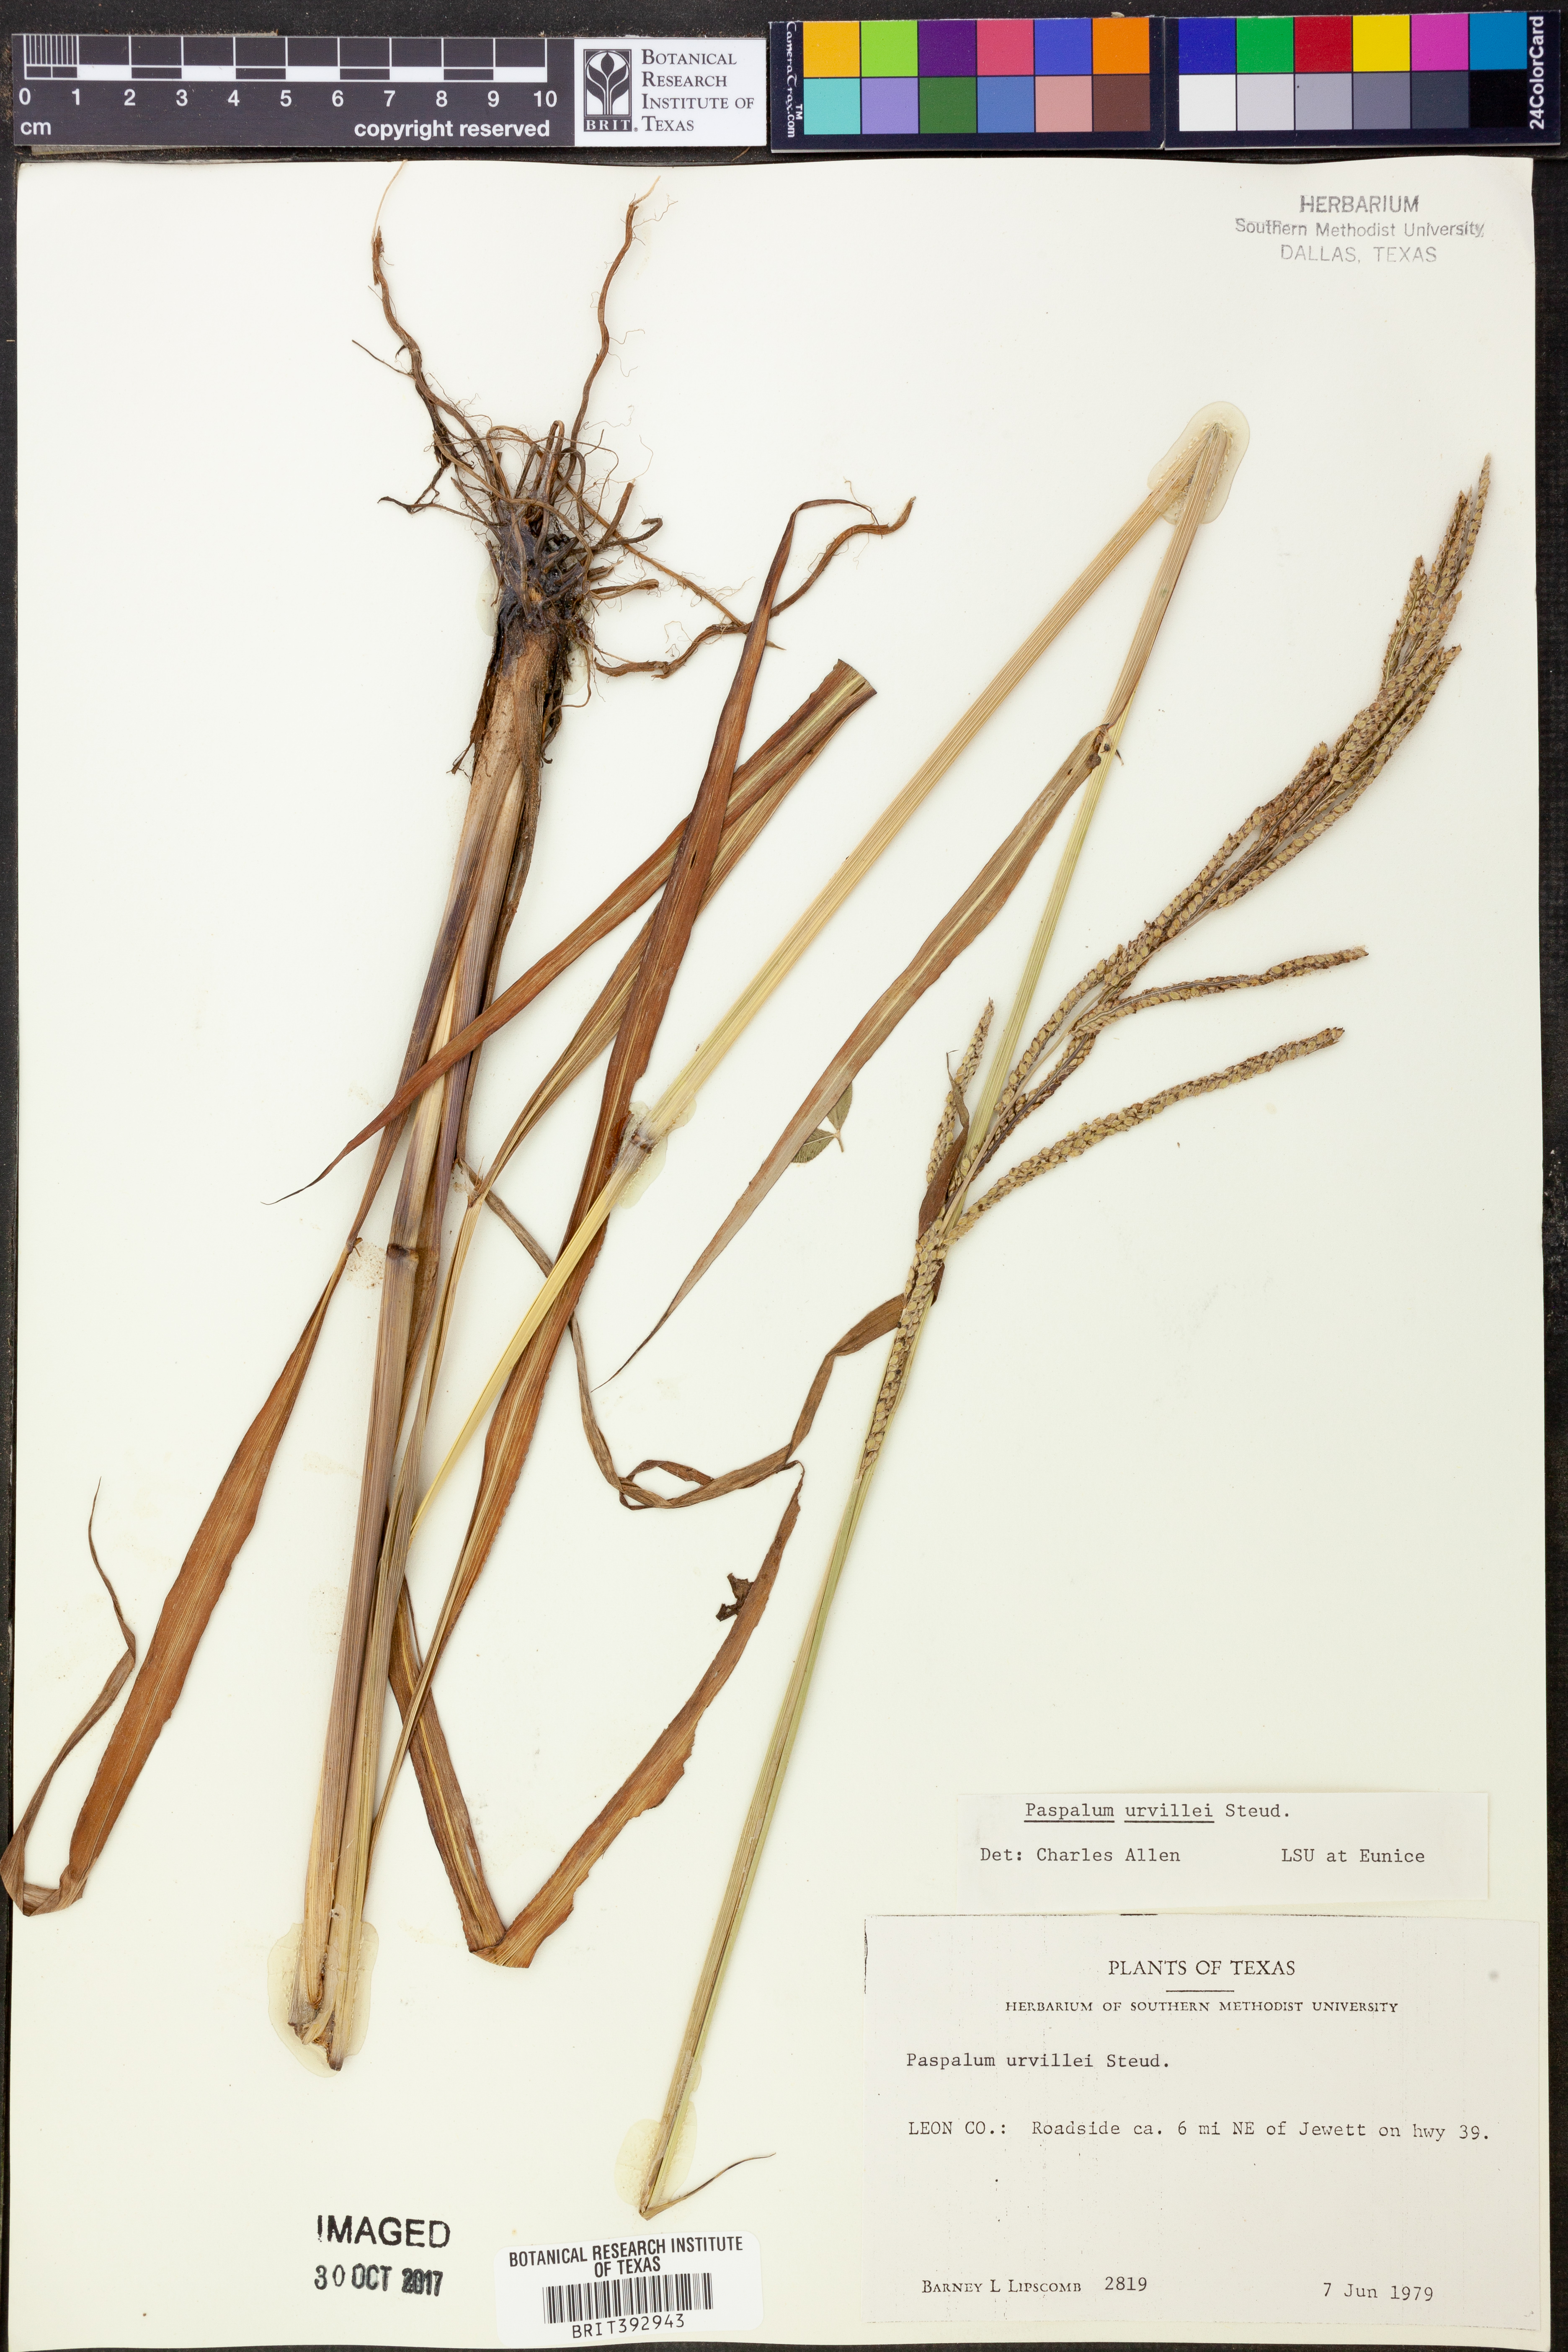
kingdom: Plantae
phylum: Tracheophyta
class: Liliopsida
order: Poales
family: Poaceae
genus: Paspalum
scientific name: Paspalum urvillei
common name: Vasey's grass
